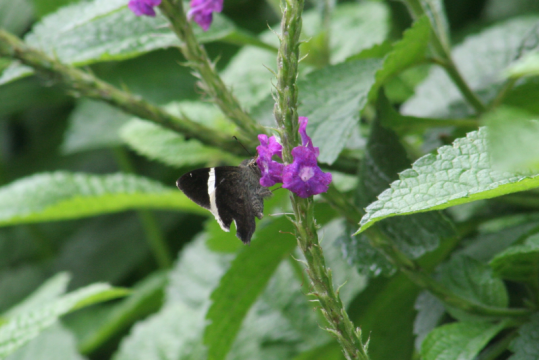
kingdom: Animalia
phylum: Arthropoda
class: Insecta
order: Lepidoptera
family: Hesperiidae
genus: Autochton
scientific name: Autochton zarex
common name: Sharp Banded-Skipper
